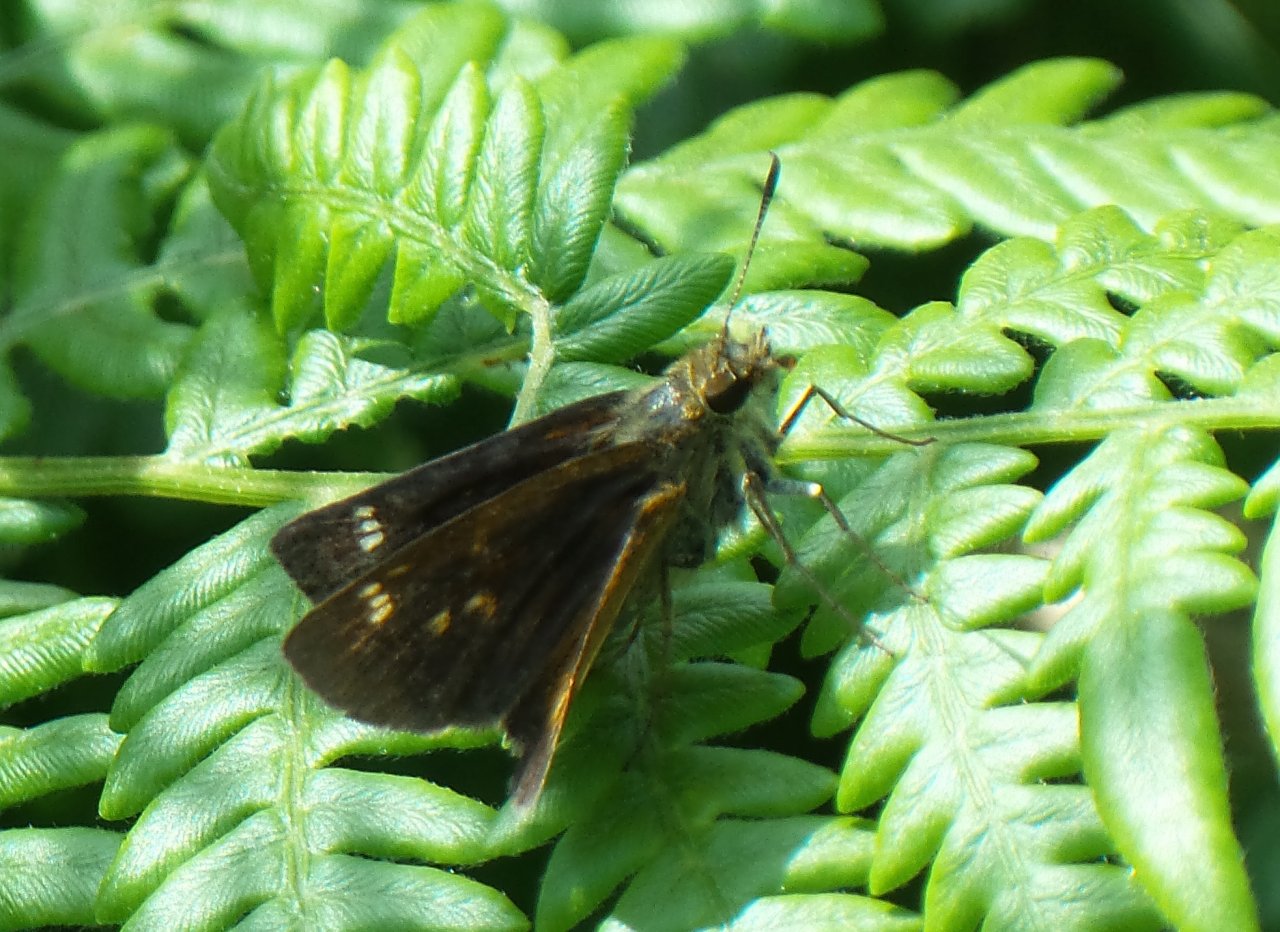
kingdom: Animalia
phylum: Arthropoda
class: Insecta
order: Lepidoptera
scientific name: Lepidoptera
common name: Butterflies
